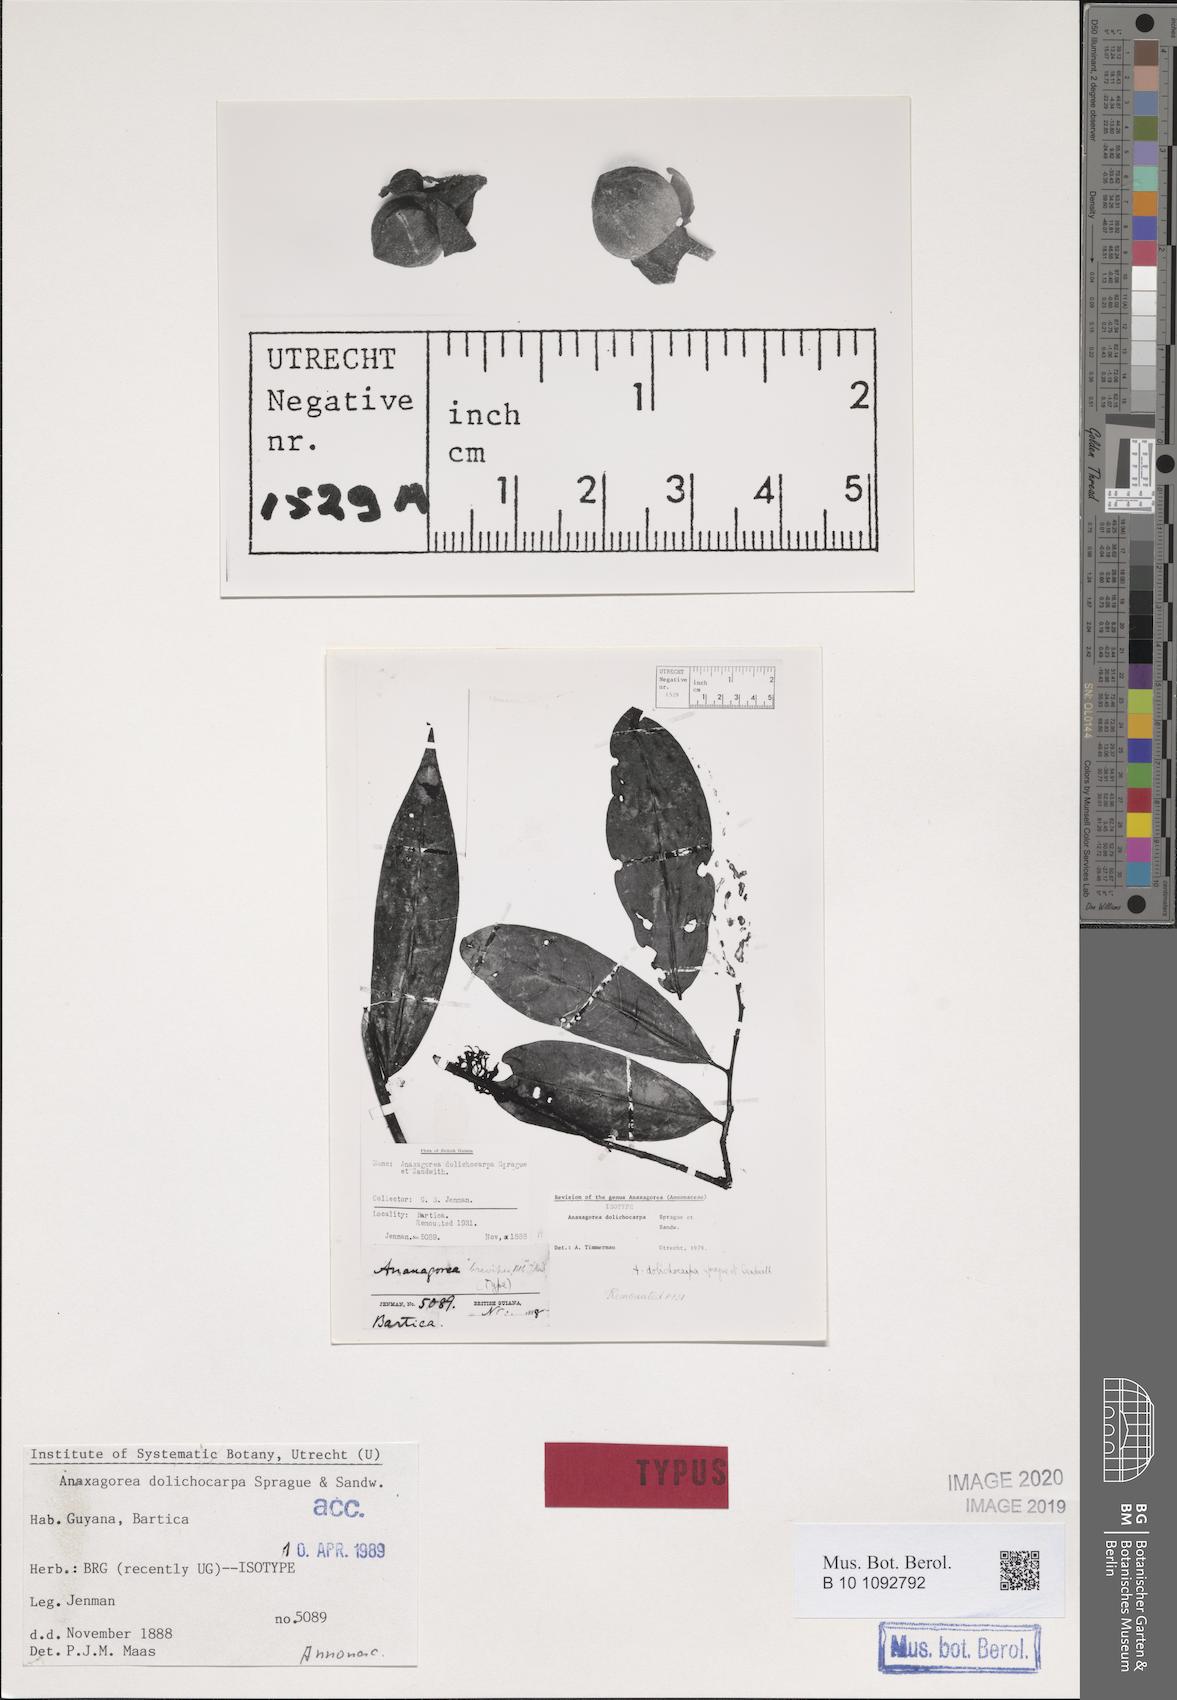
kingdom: Plantae
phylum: Tracheophyta
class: Magnoliopsida
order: Magnoliales
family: Annonaceae
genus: Anaxagorea
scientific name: Anaxagorea dolichocarpa
